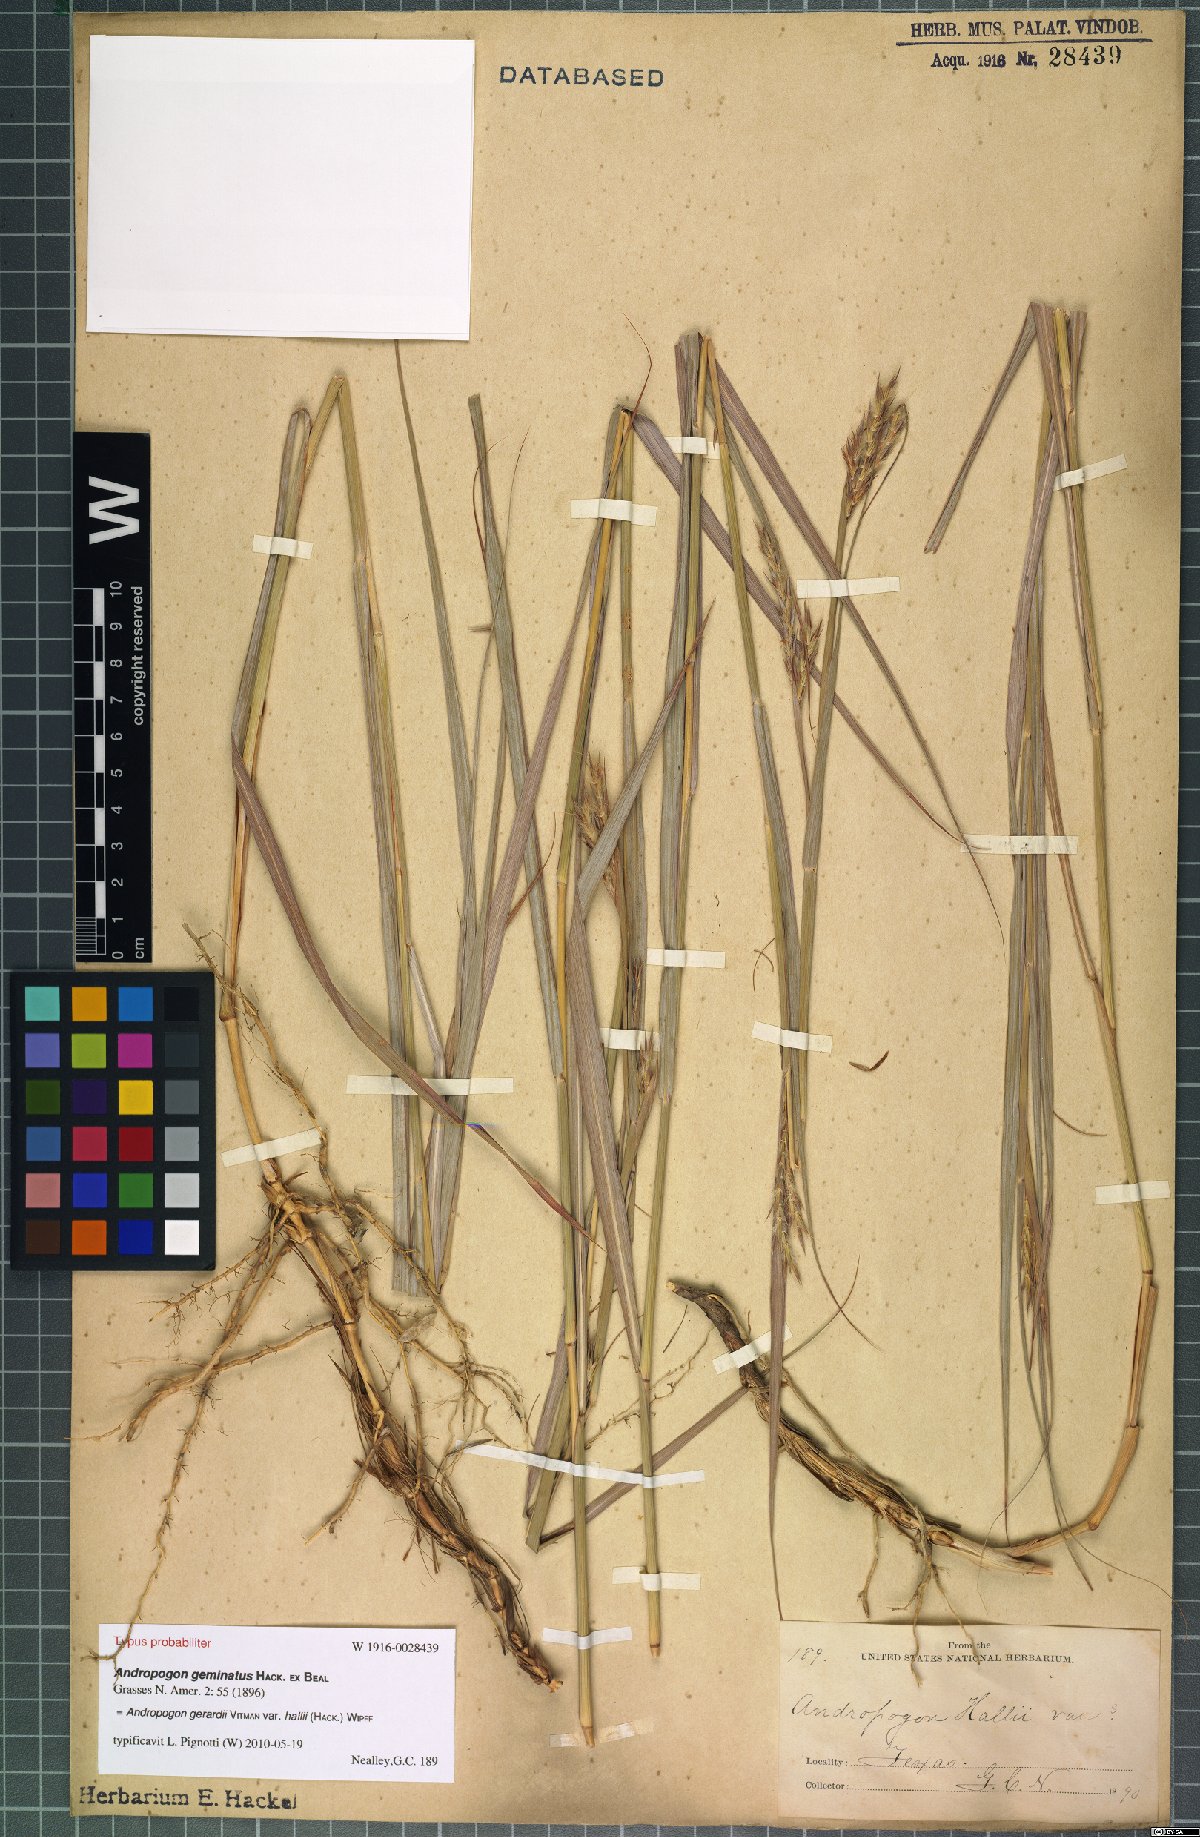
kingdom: Plantae
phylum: Tracheophyta
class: Liliopsida
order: Poales
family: Poaceae
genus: Andropogon
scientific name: Andropogon hallii
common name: Sand bluestem
